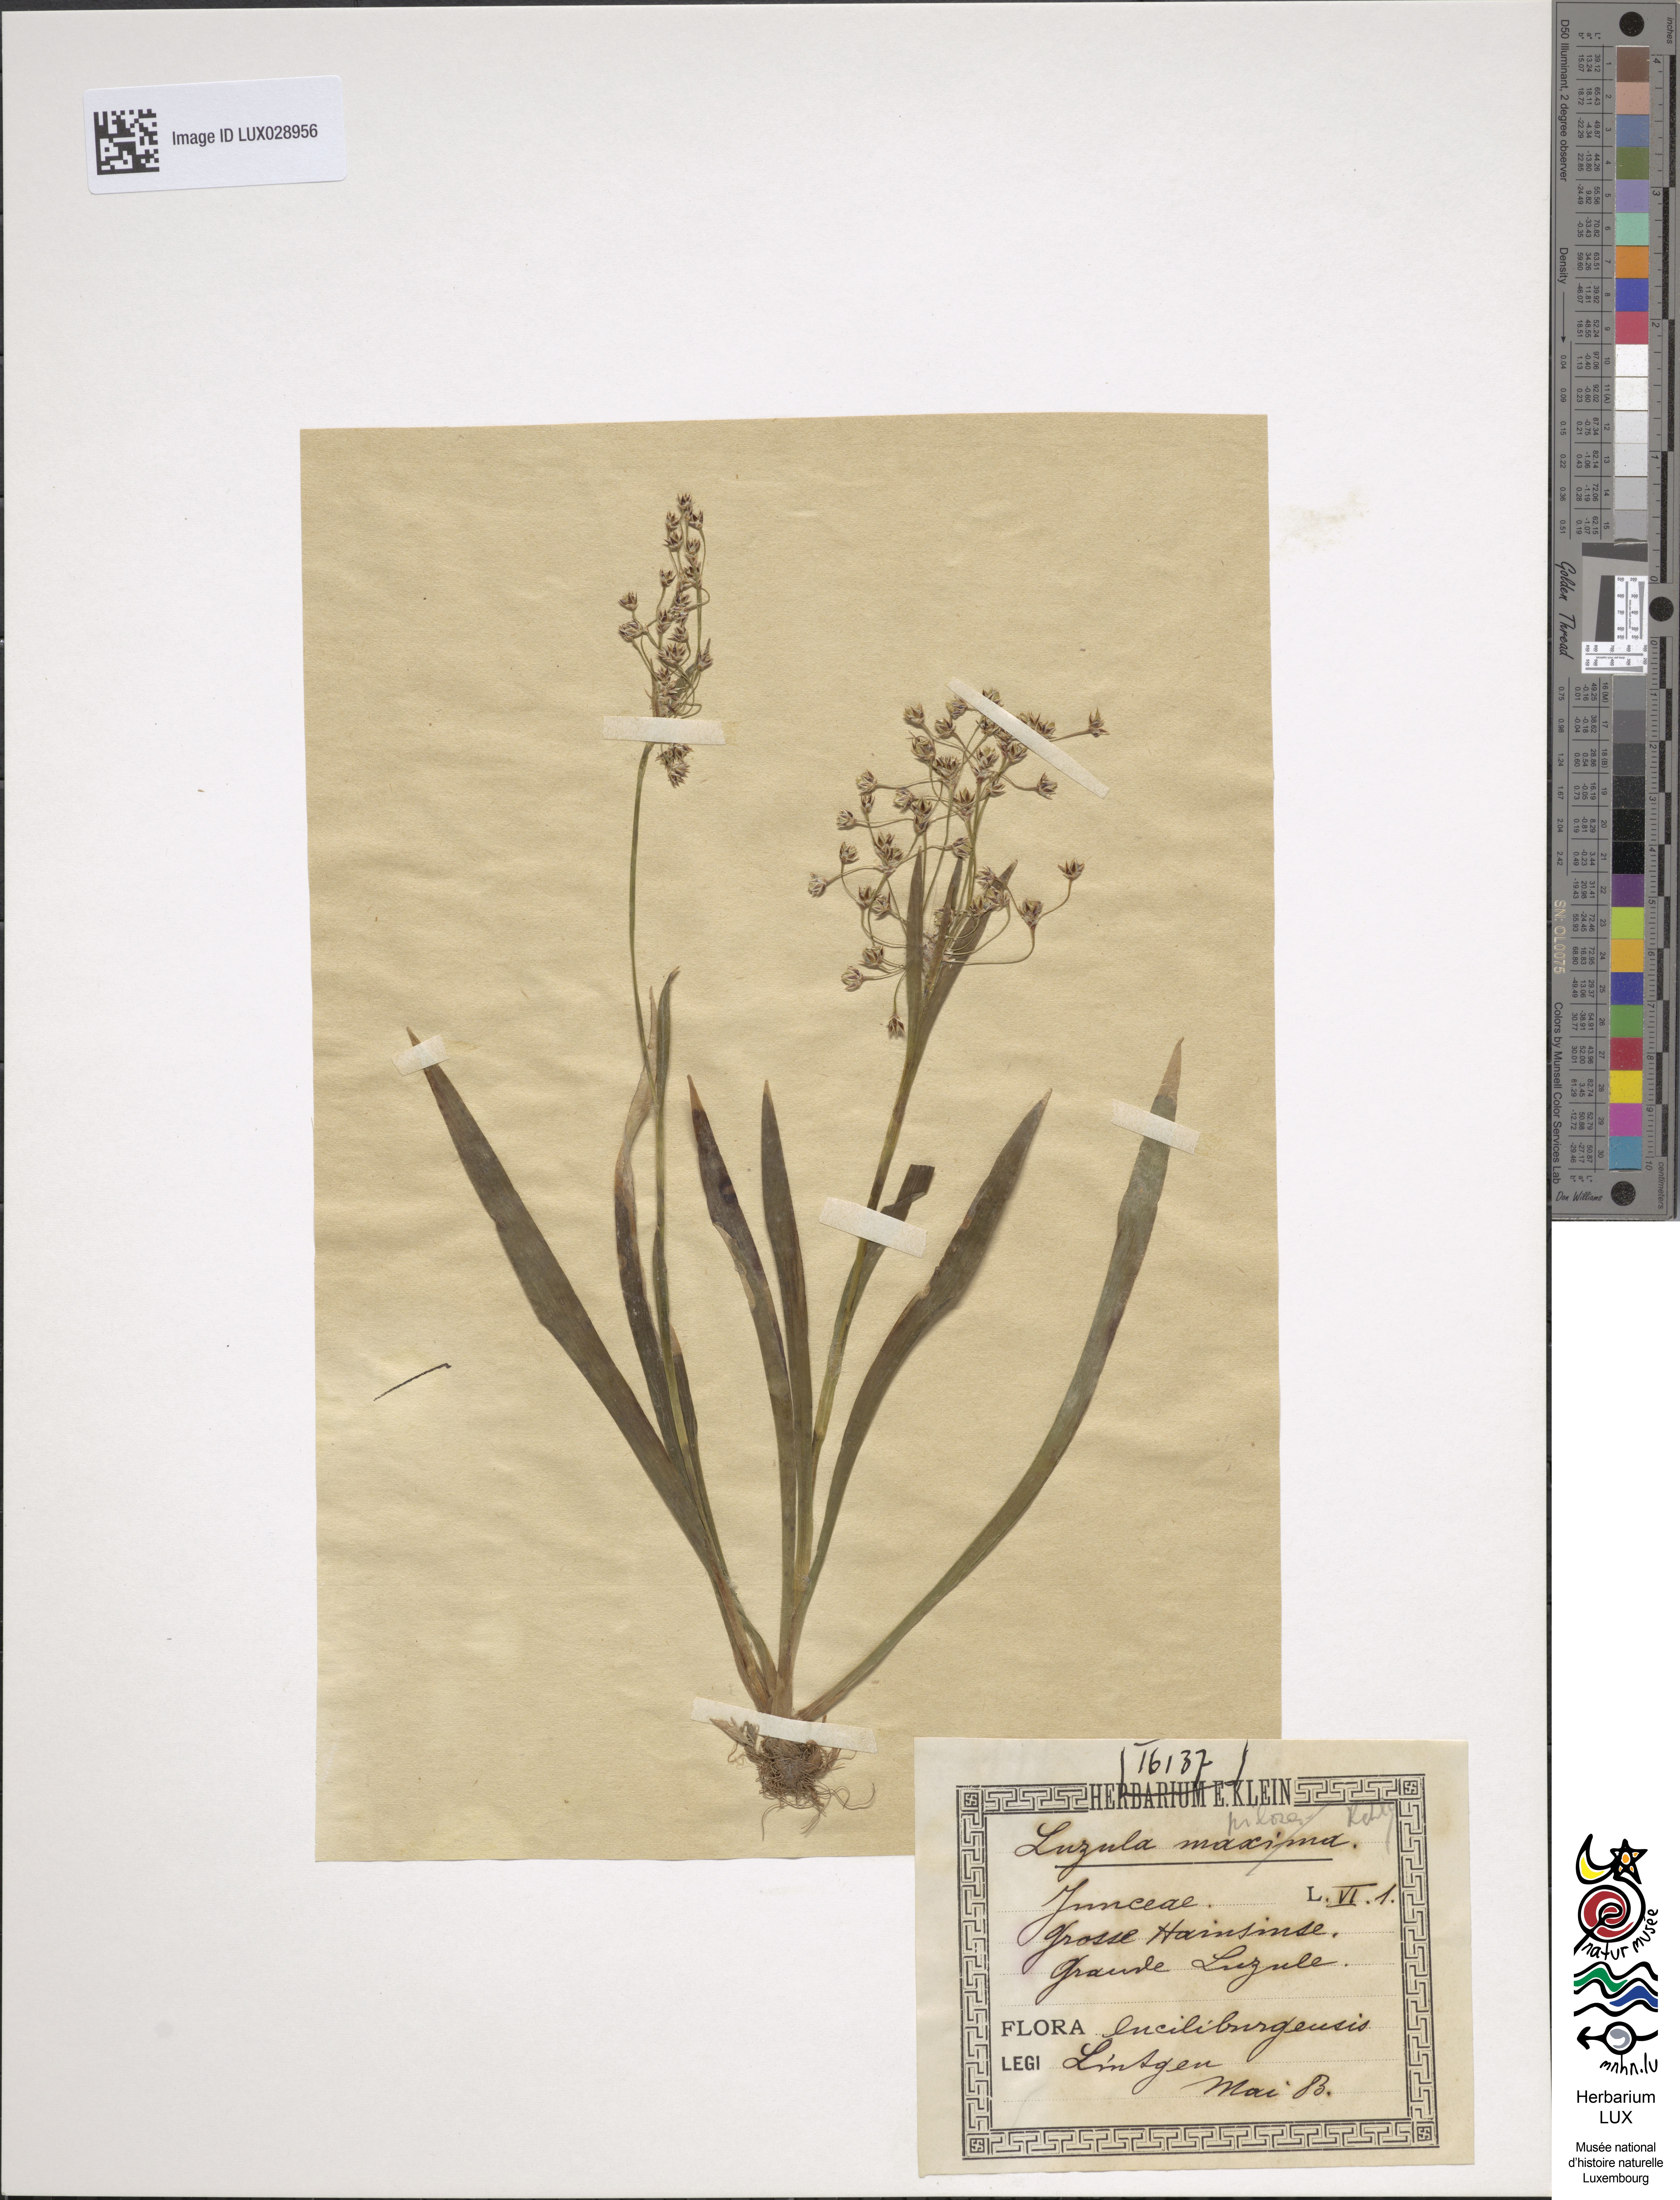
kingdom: Plantae
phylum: Tracheophyta
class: Liliopsida
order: Poales
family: Juncaceae
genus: Luzula
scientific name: Luzula pilosa
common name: Hairy wood-rush
